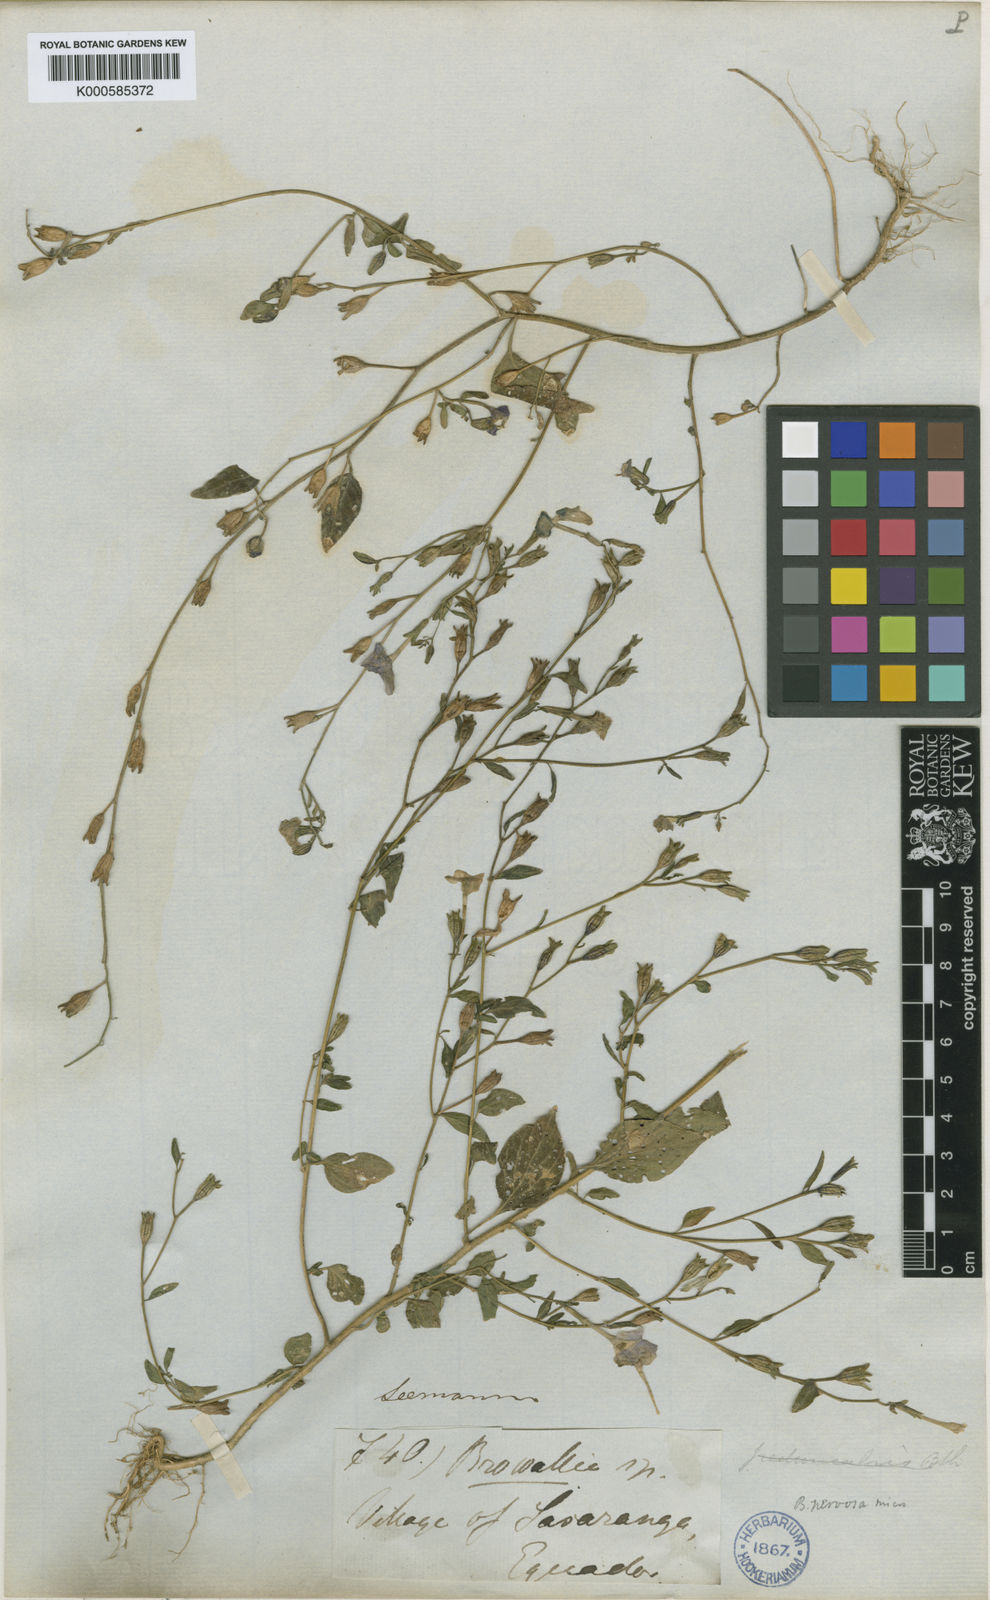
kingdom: Plantae
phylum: Tracheophyta
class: Magnoliopsida
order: Solanales
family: Solanaceae
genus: Browallia
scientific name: Browallia americana
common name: Jamaican forget-me-not
